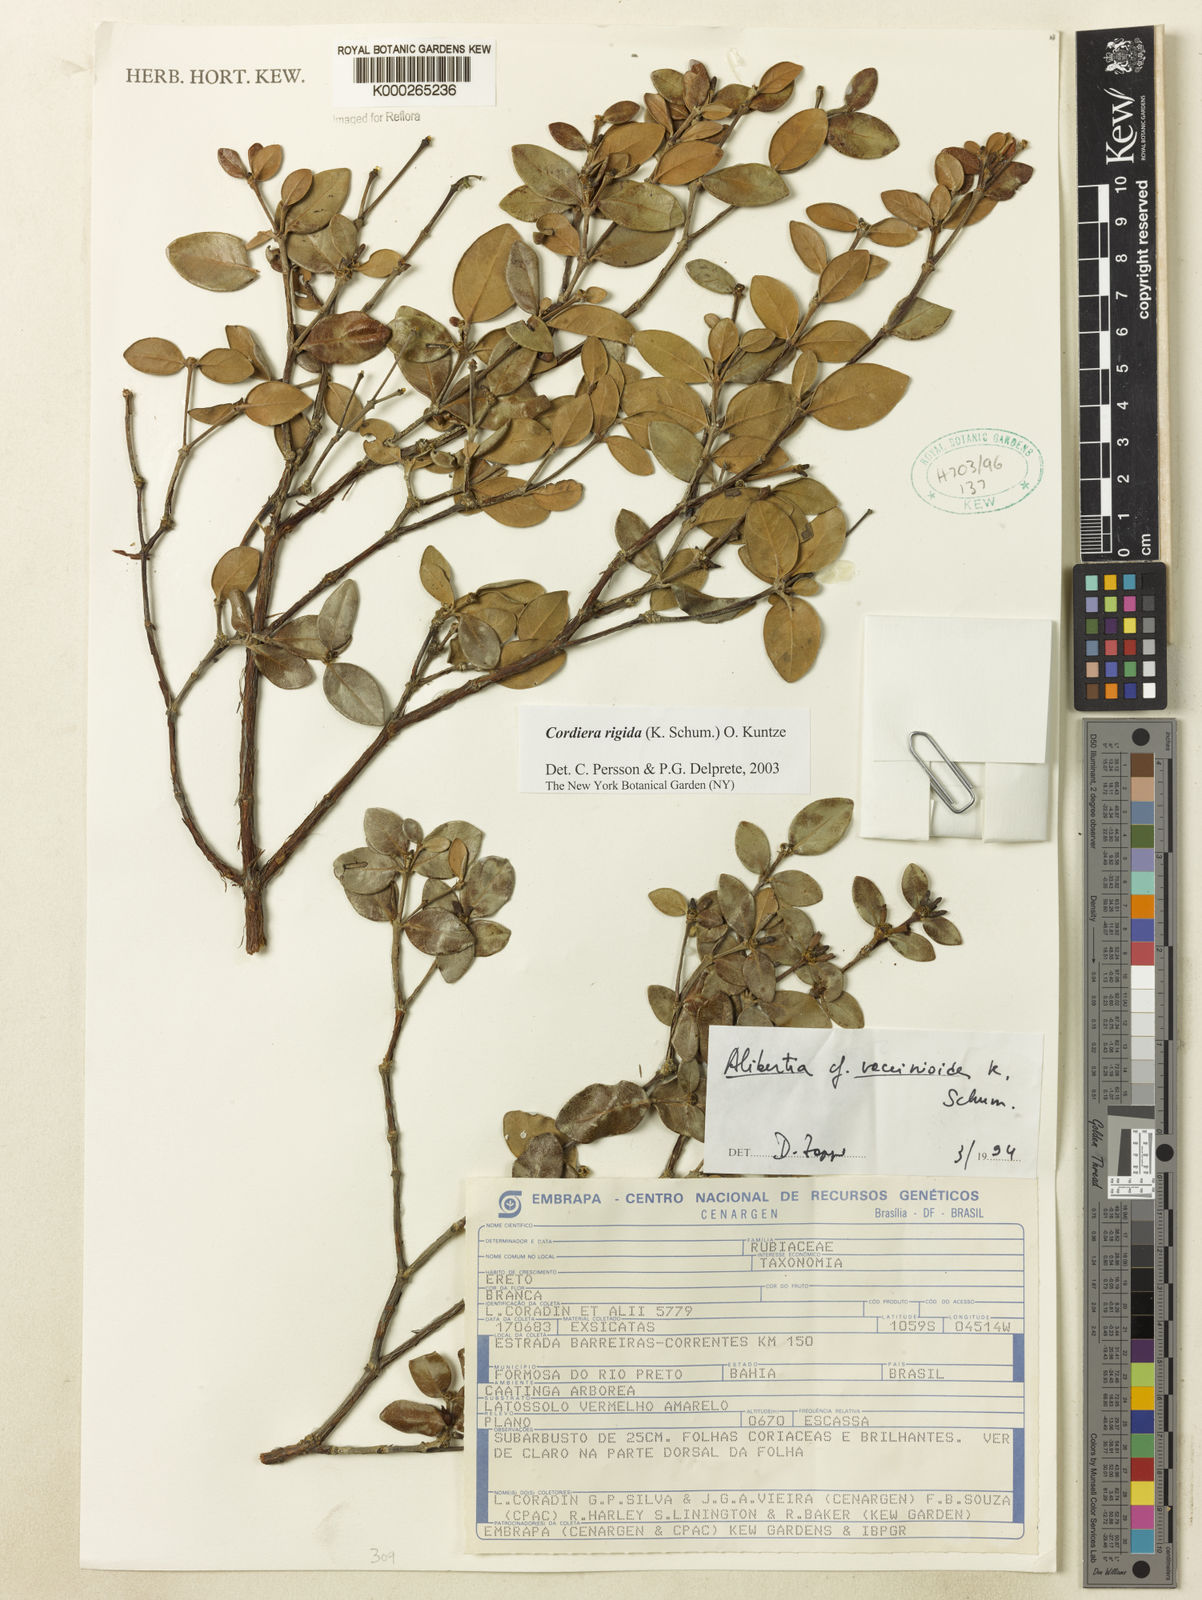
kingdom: Plantae
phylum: Tracheophyta
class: Magnoliopsida
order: Gentianales
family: Rubiaceae
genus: Cordiera
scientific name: Cordiera concolor
